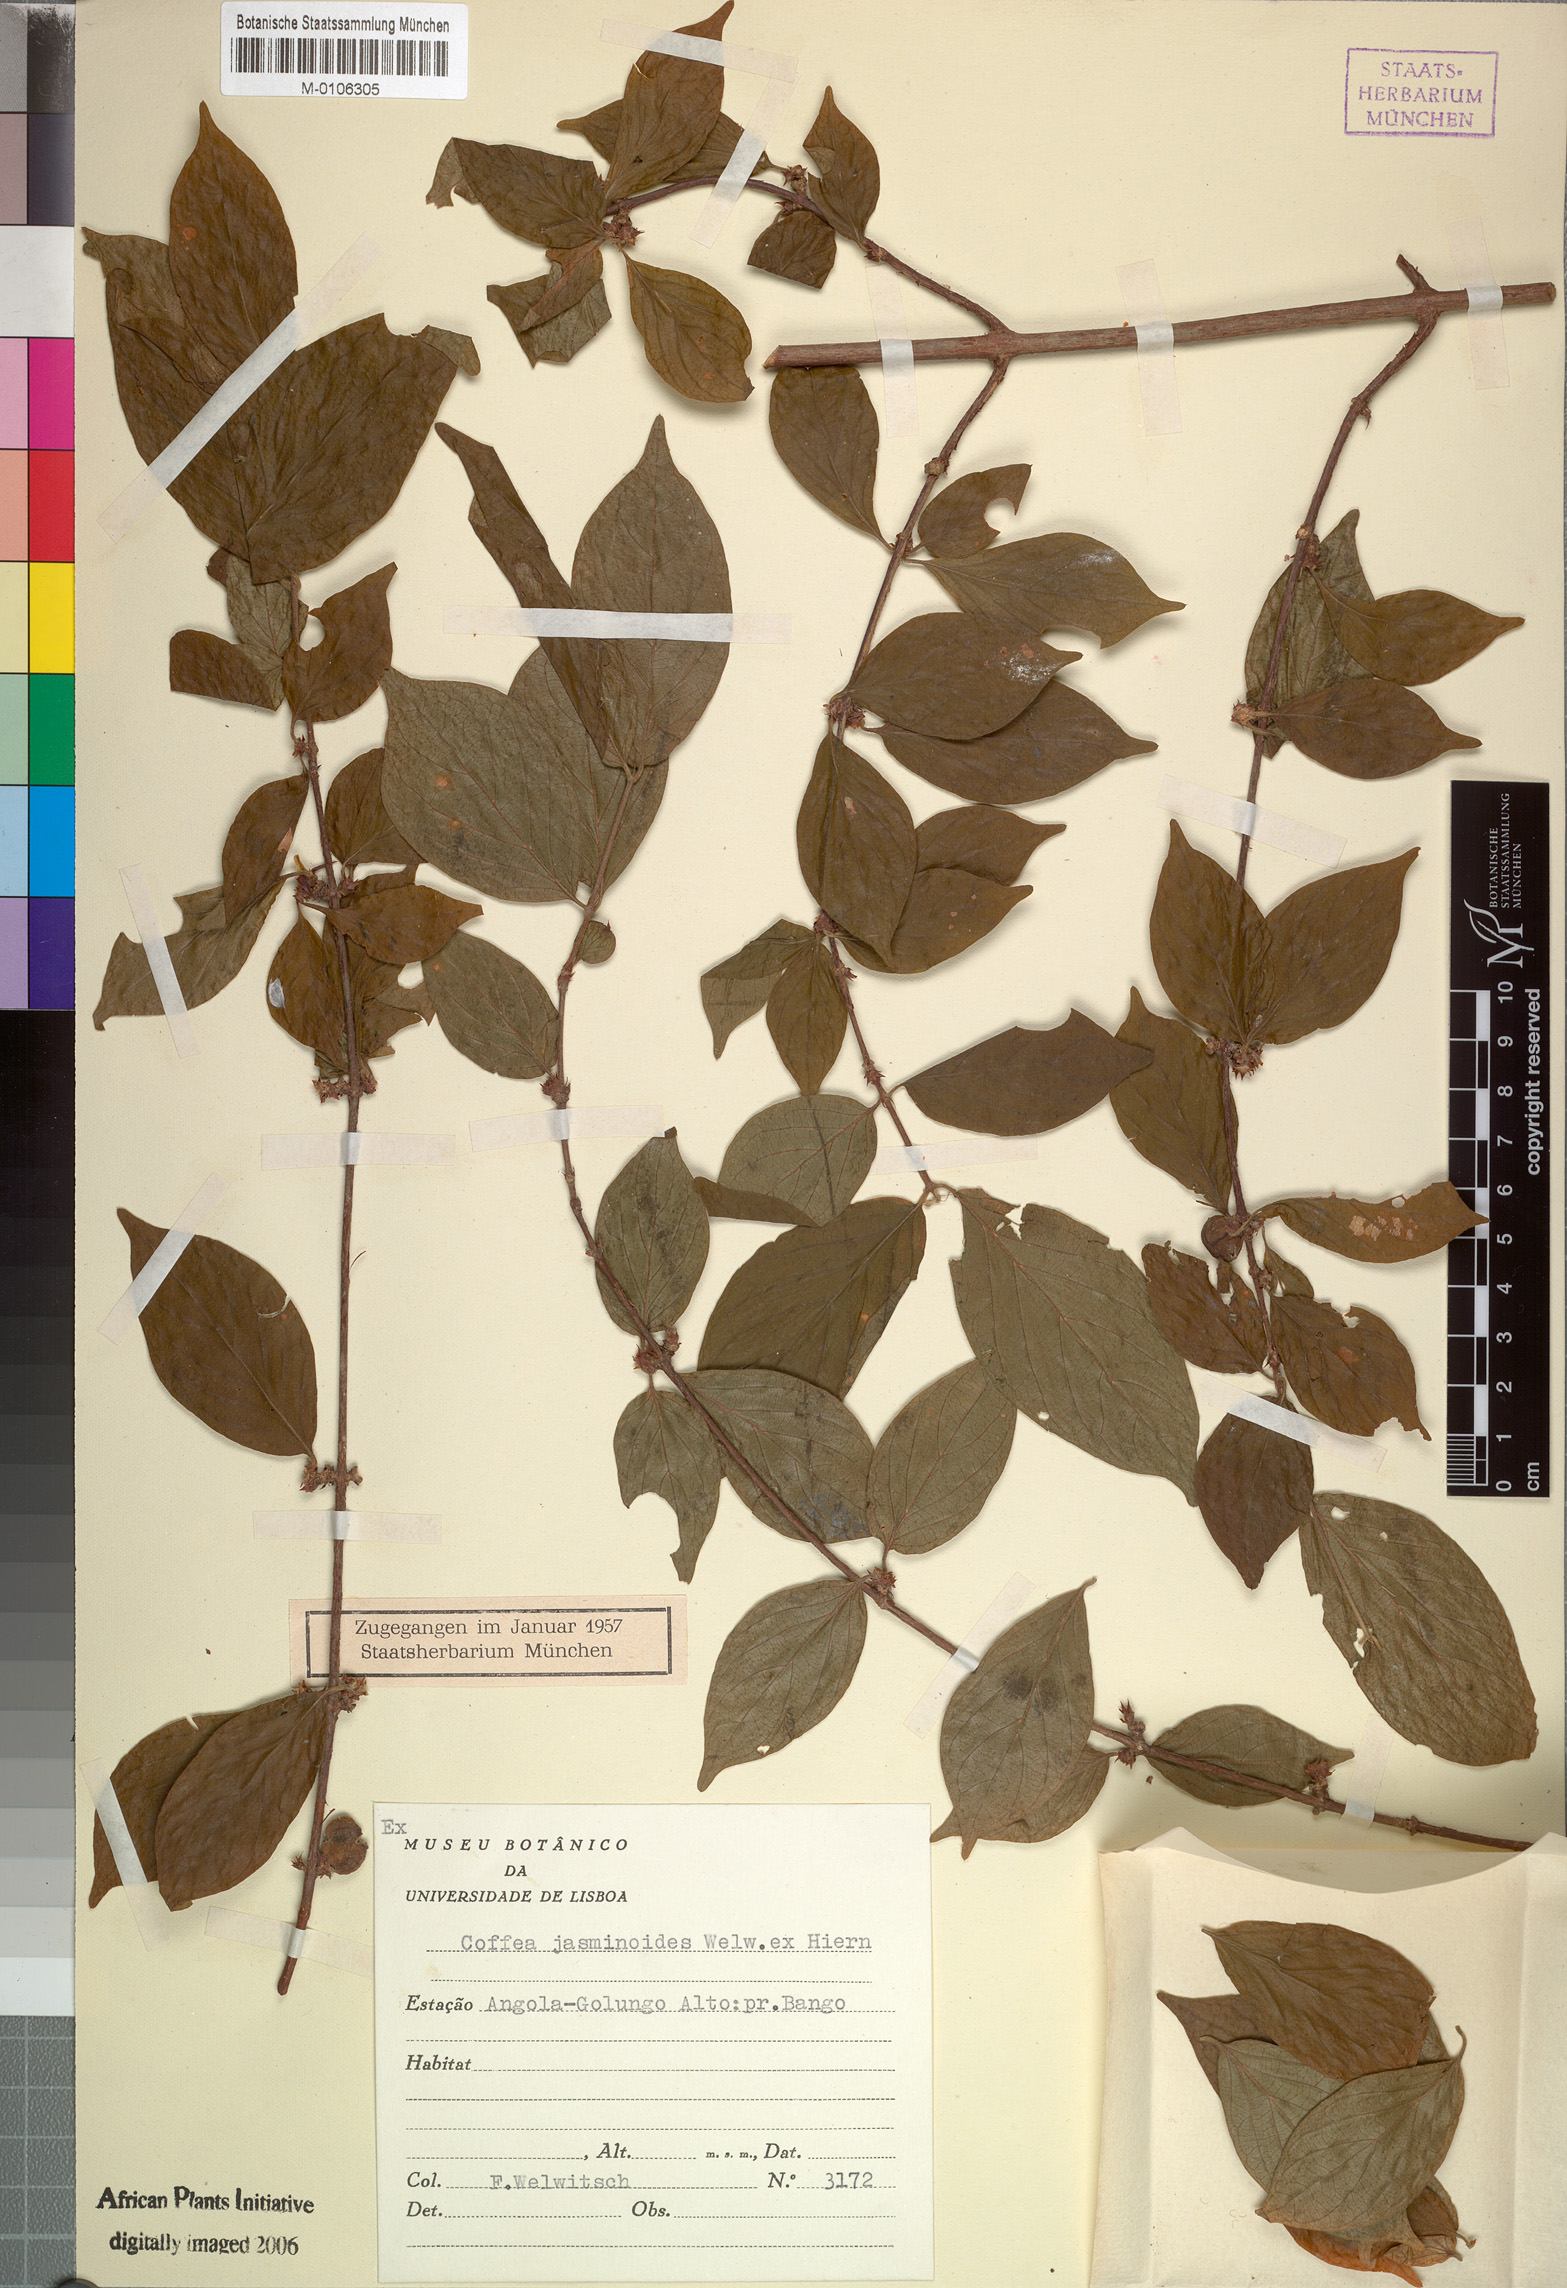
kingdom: Plantae
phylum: Tracheophyta
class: Magnoliopsida
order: Gentianales
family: Rubiaceae
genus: Argocoffeopsis
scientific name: Argocoffeopsis eketensis
